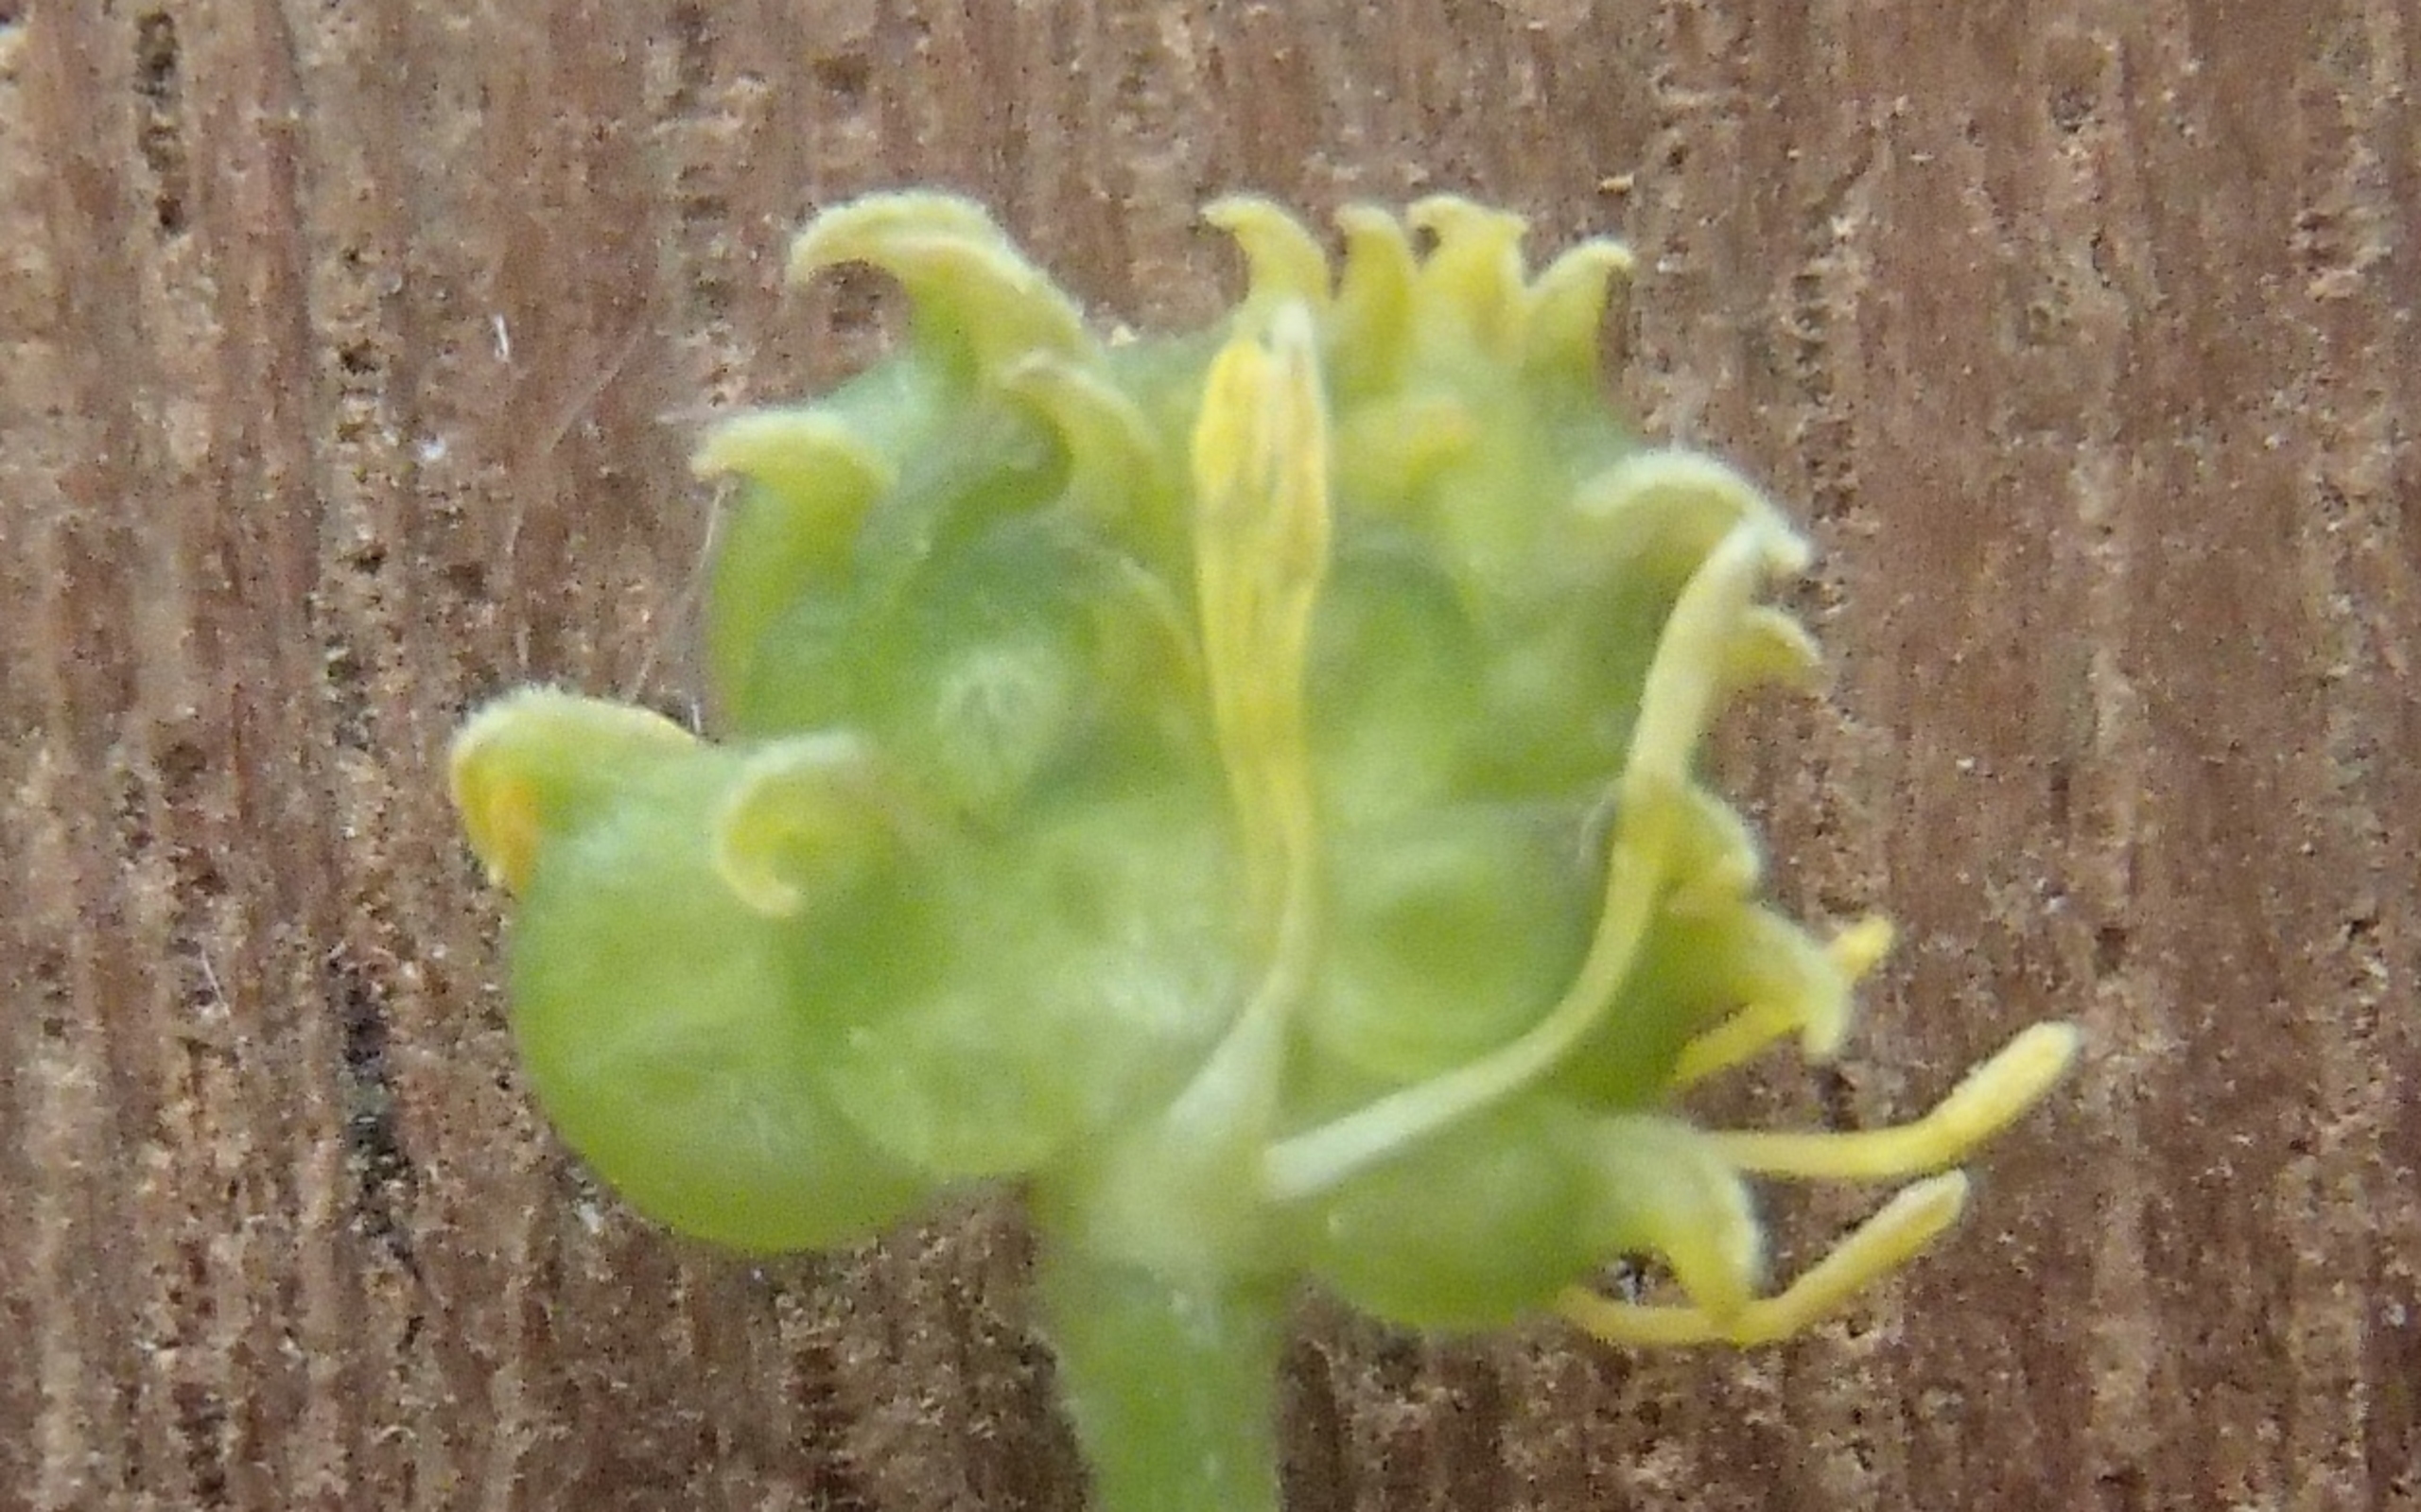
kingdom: Plantae
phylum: Tracheophyta
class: Magnoliopsida
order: Ranunculales
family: Ranunculaceae
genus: Ranunculus
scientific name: Ranunculus auricomus
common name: Nyrebladet ranunkel
